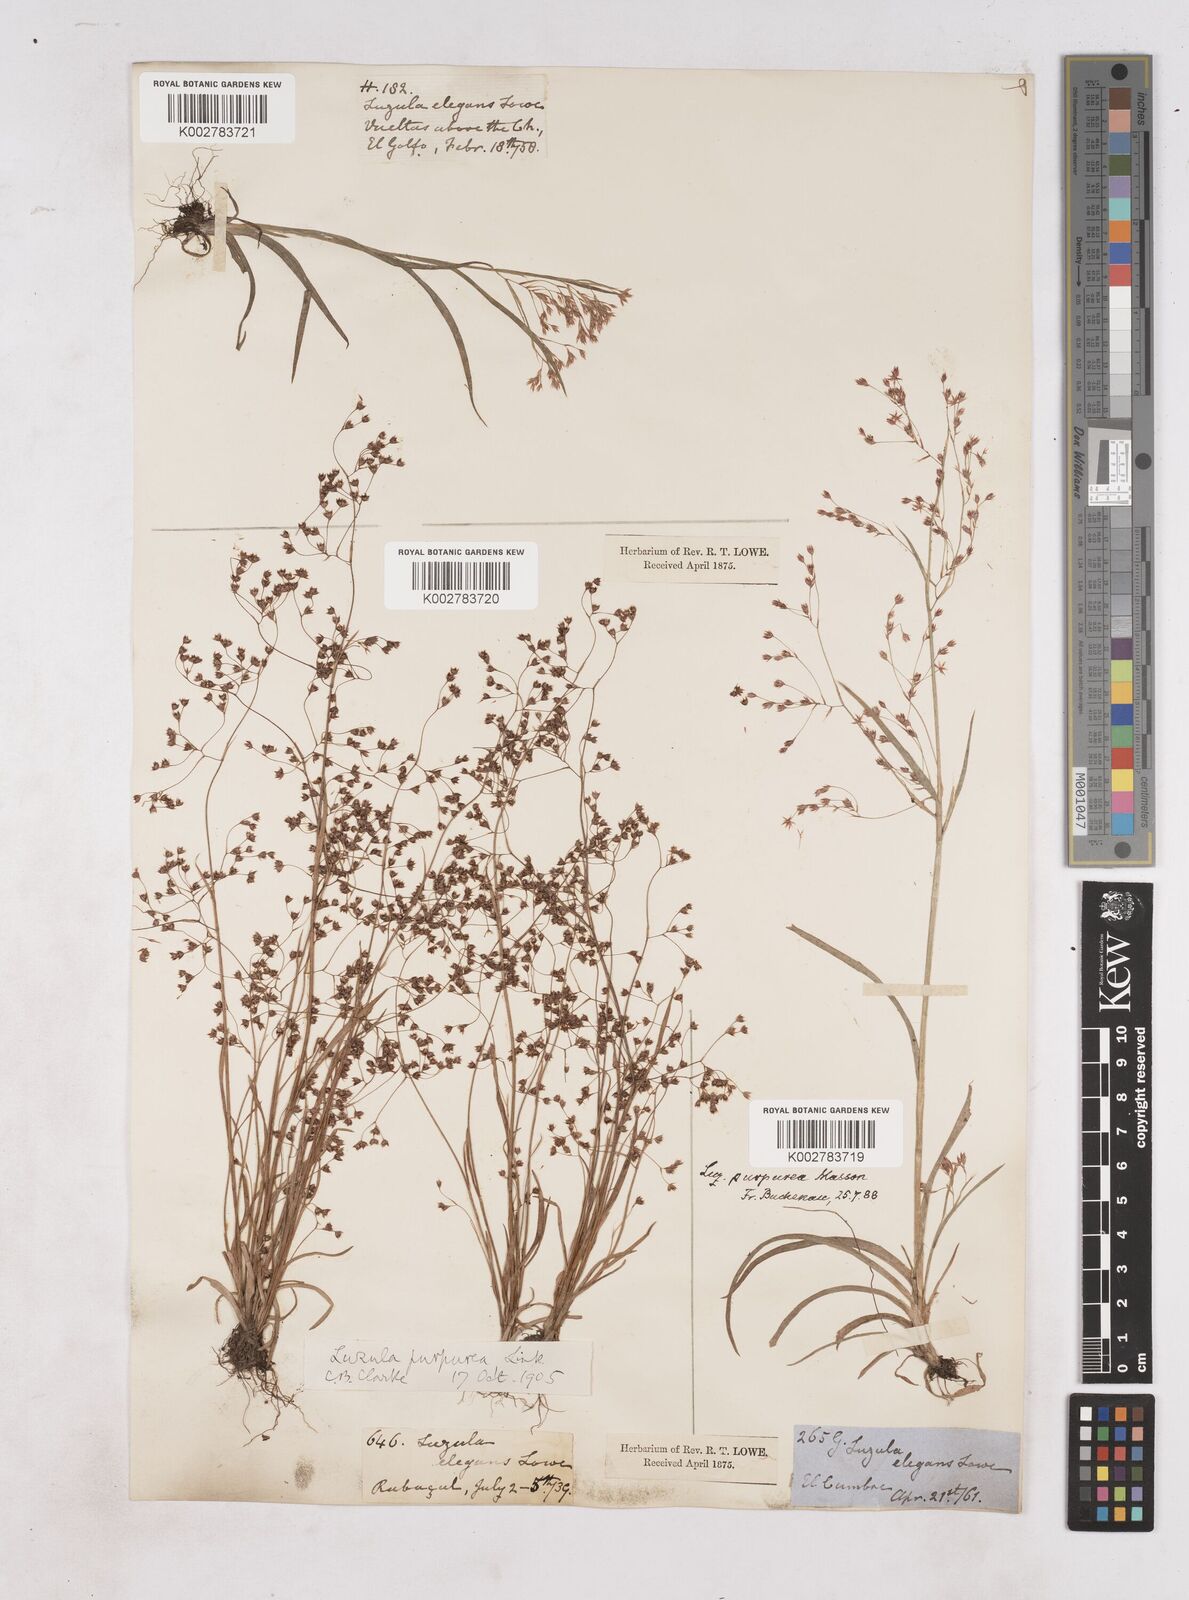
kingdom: Plantae
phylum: Tracheophyta
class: Liliopsida
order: Poales
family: Juncaceae
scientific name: Juncaceae
